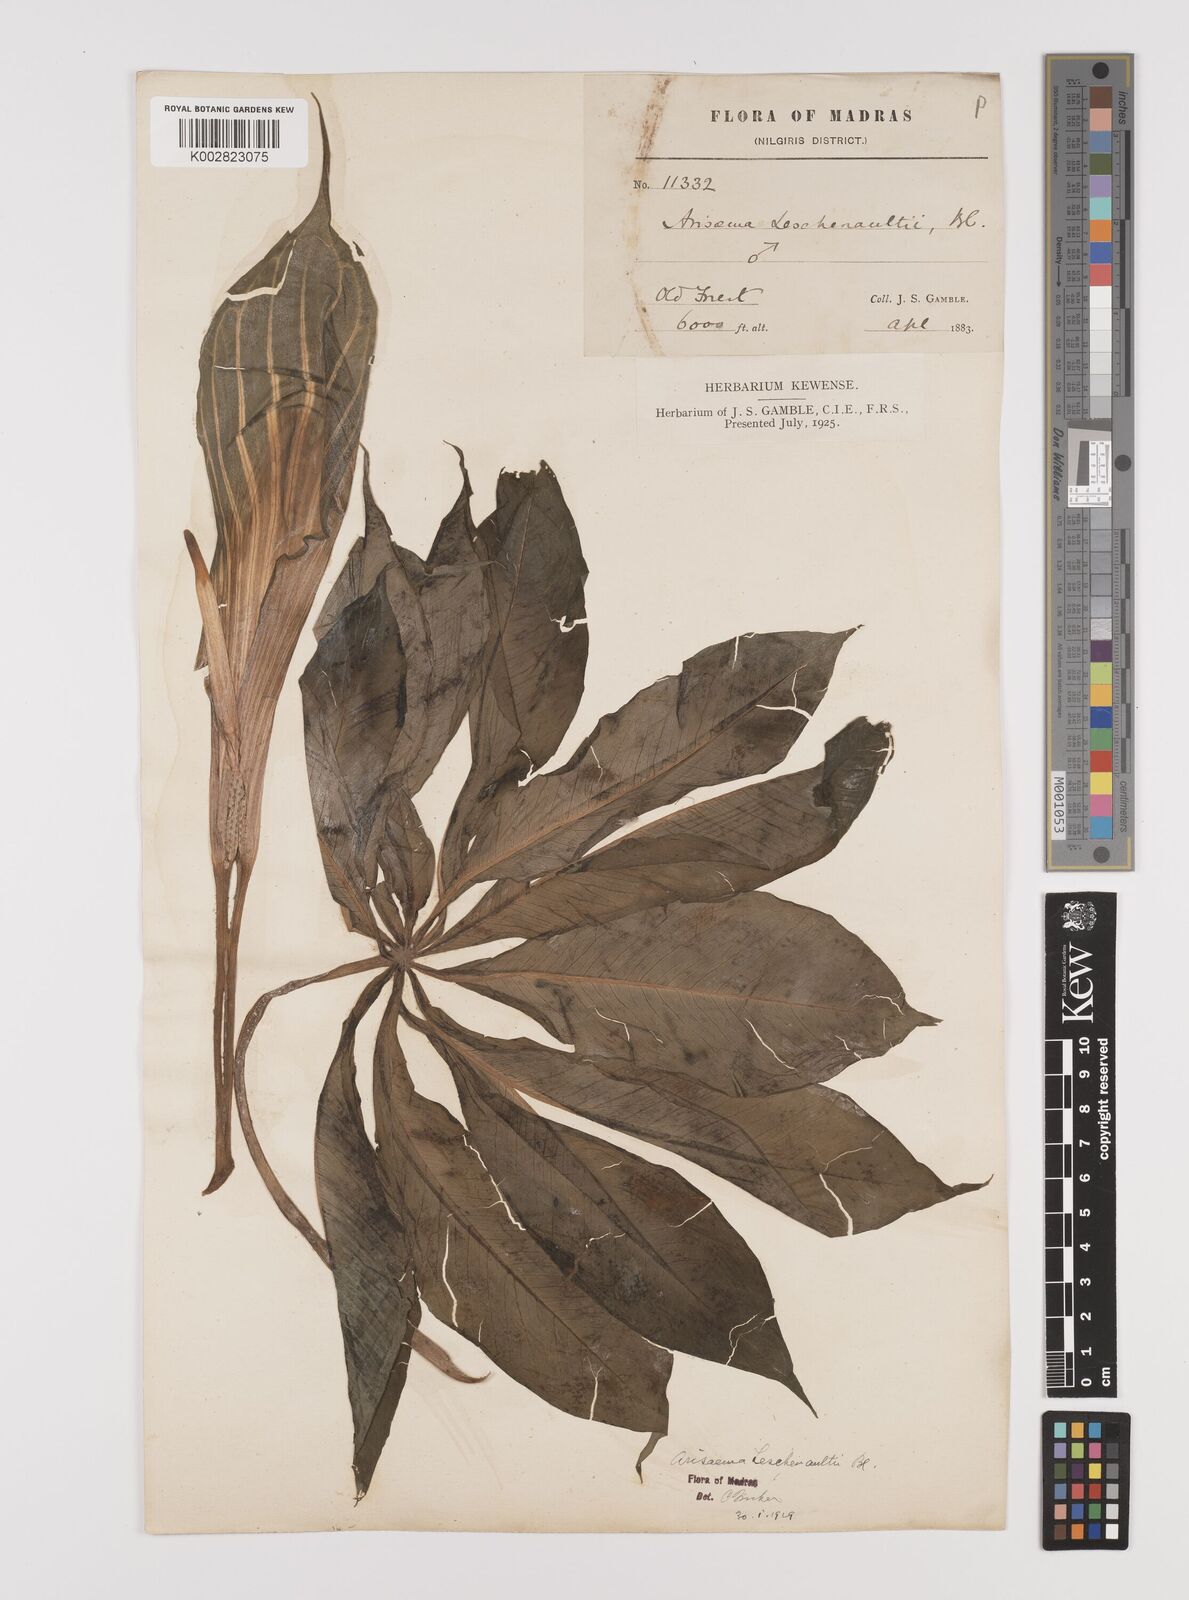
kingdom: Plantae
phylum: Tracheophyta
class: Liliopsida
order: Alismatales
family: Araceae
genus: Arisaema
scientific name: Arisaema leschenaultii
